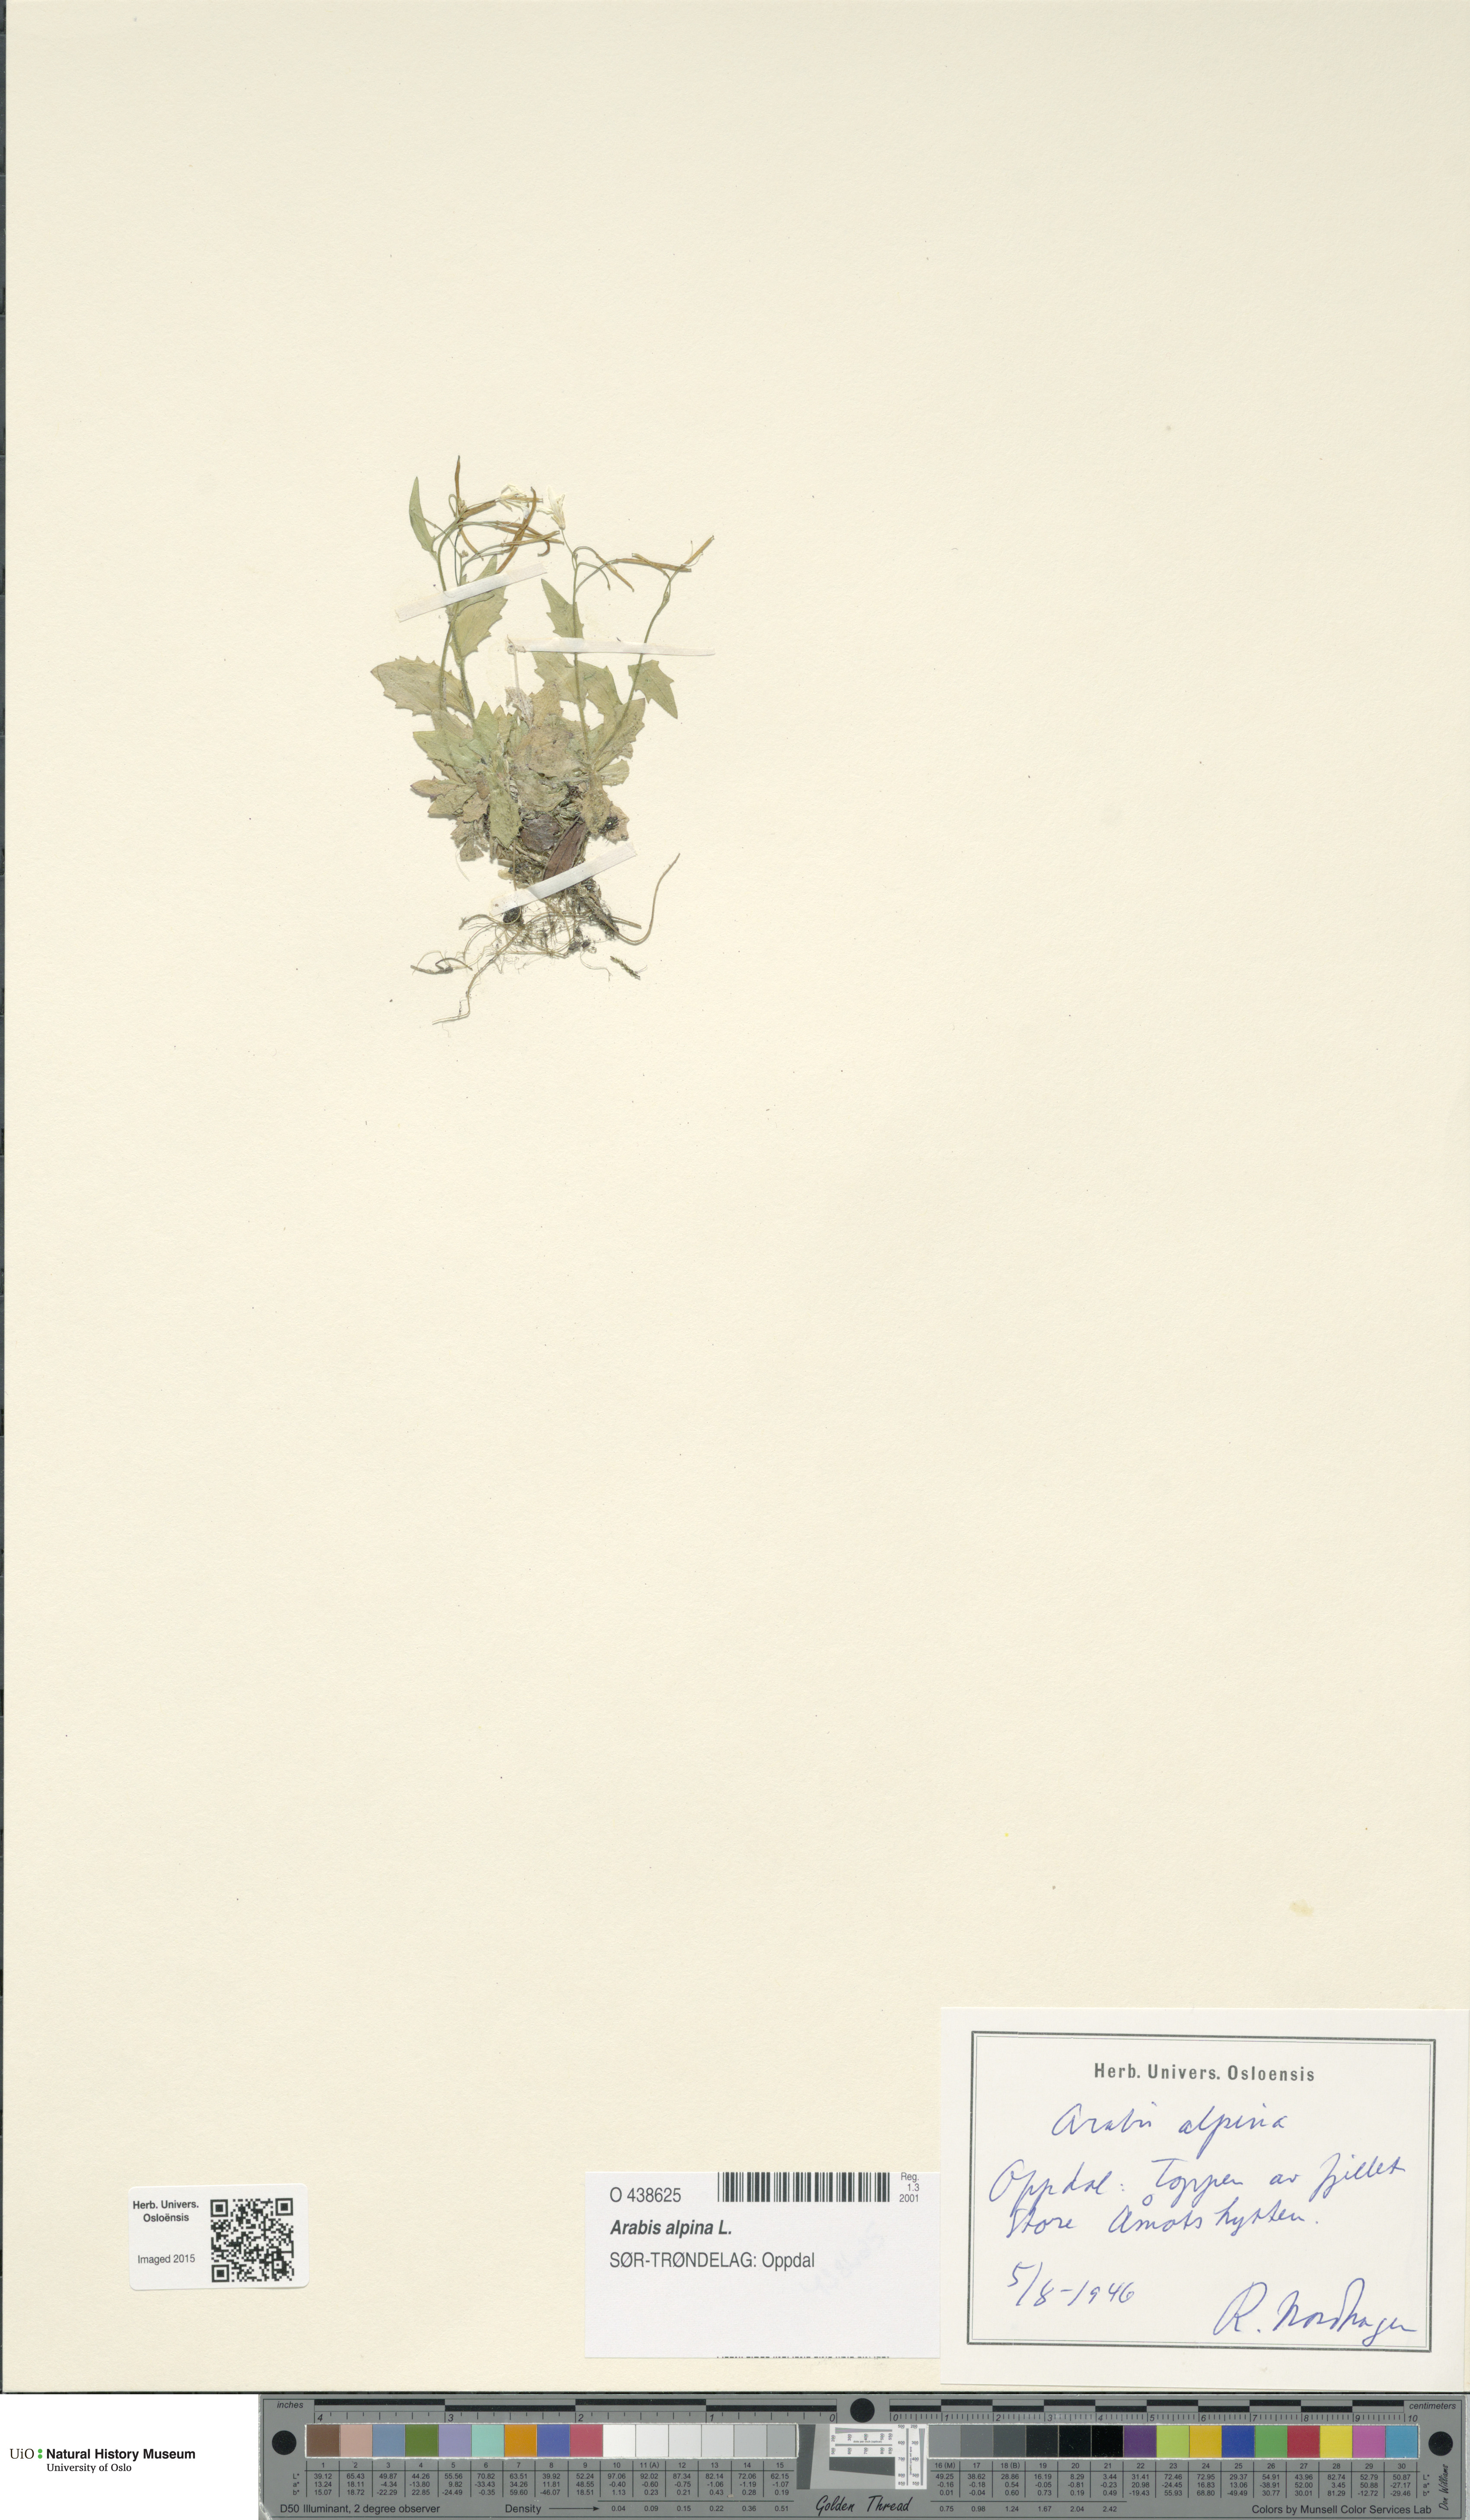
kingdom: Plantae
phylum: Tracheophyta
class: Magnoliopsida
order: Brassicales
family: Brassicaceae
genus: Arabis
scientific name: Arabis alpina
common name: Alpine rock-cress
